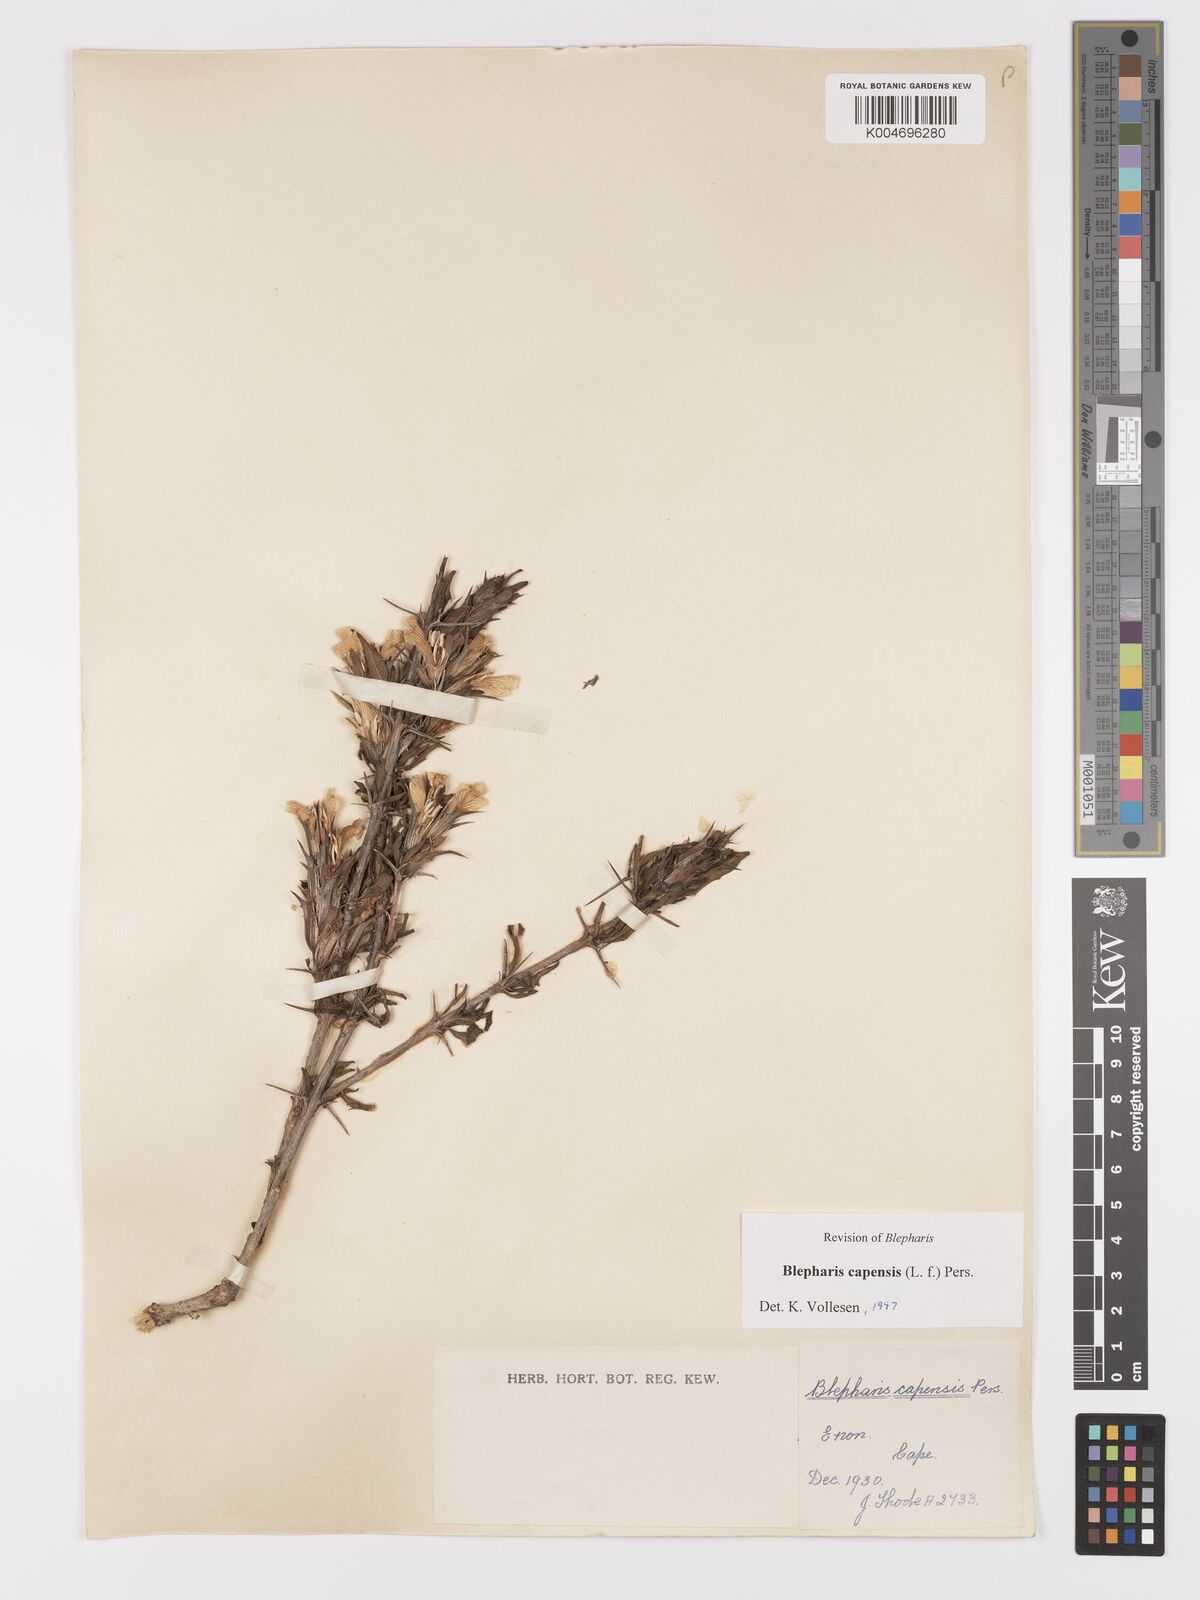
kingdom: Plantae
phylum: Tracheophyta
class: Magnoliopsida
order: Lamiales
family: Acanthaceae
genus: Blepharis
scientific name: Blepharis capensis
